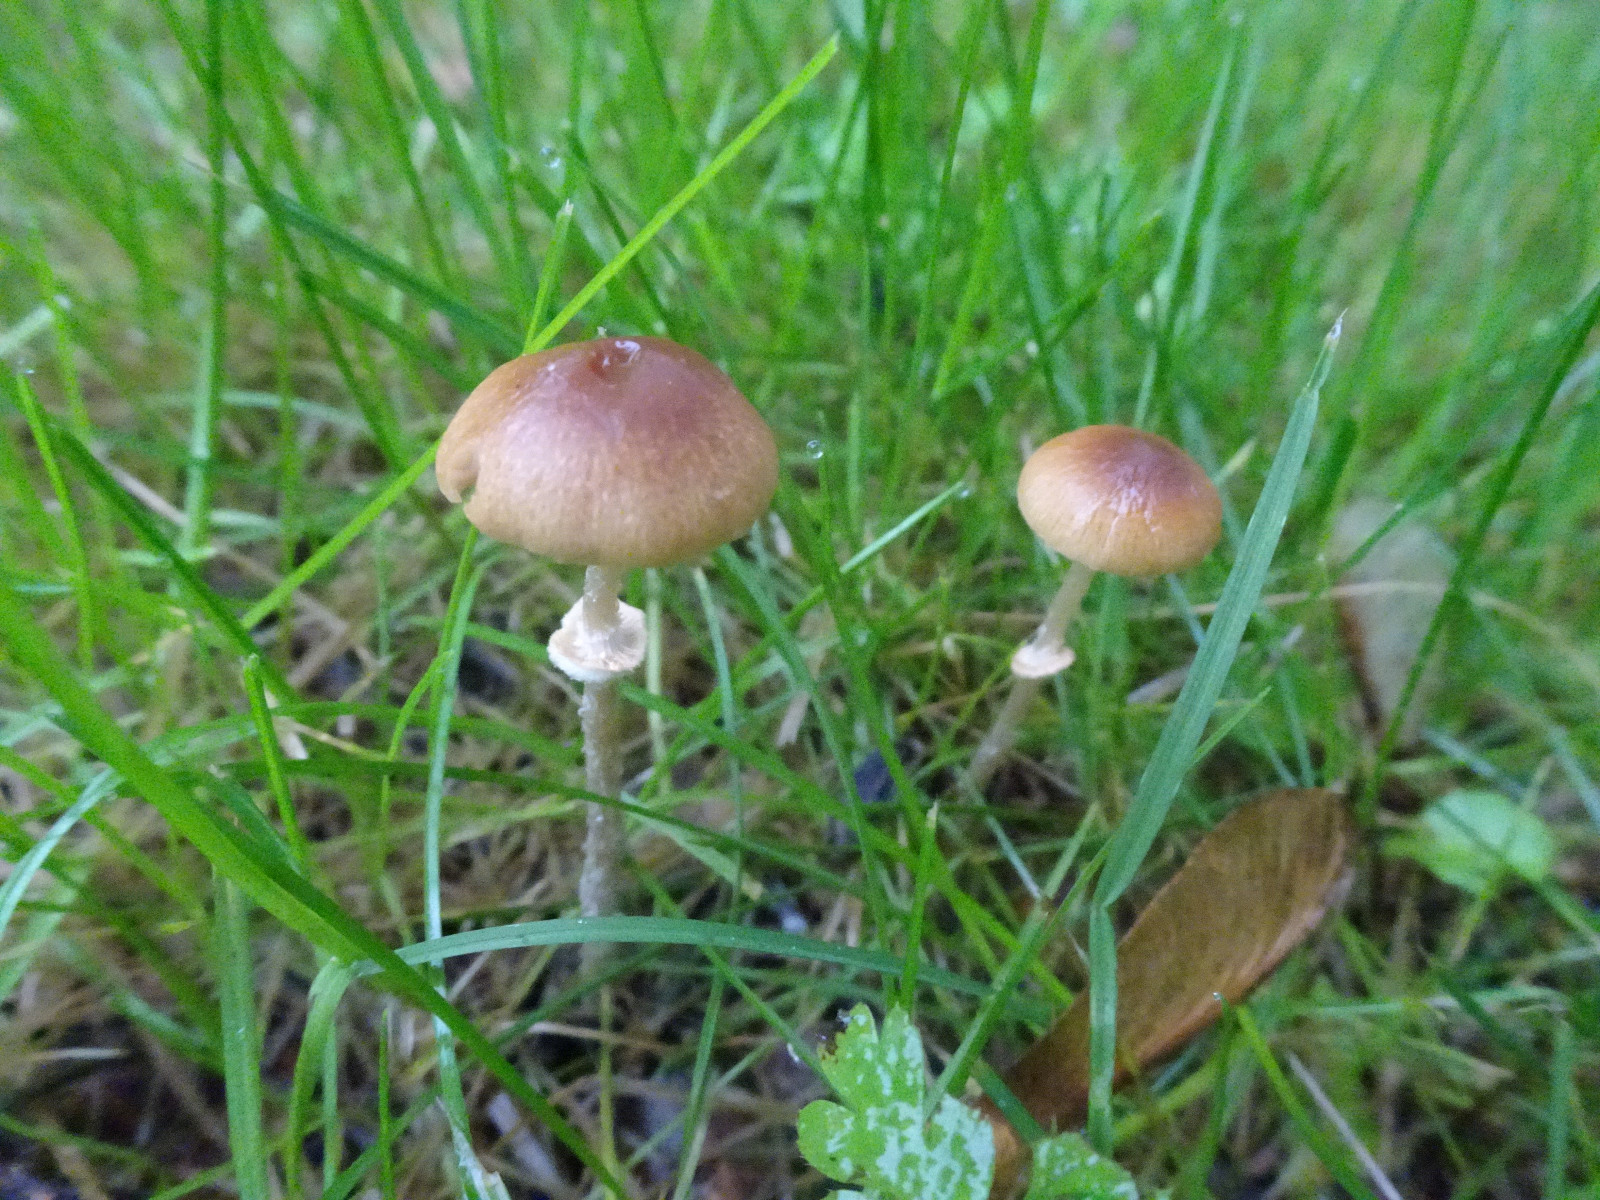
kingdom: Fungi
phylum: Basidiomycota
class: Agaricomycetes
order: Agaricales
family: Strophariaceae
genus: Leratiomyces
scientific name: Leratiomyces squamosus
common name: skællet bredblad
